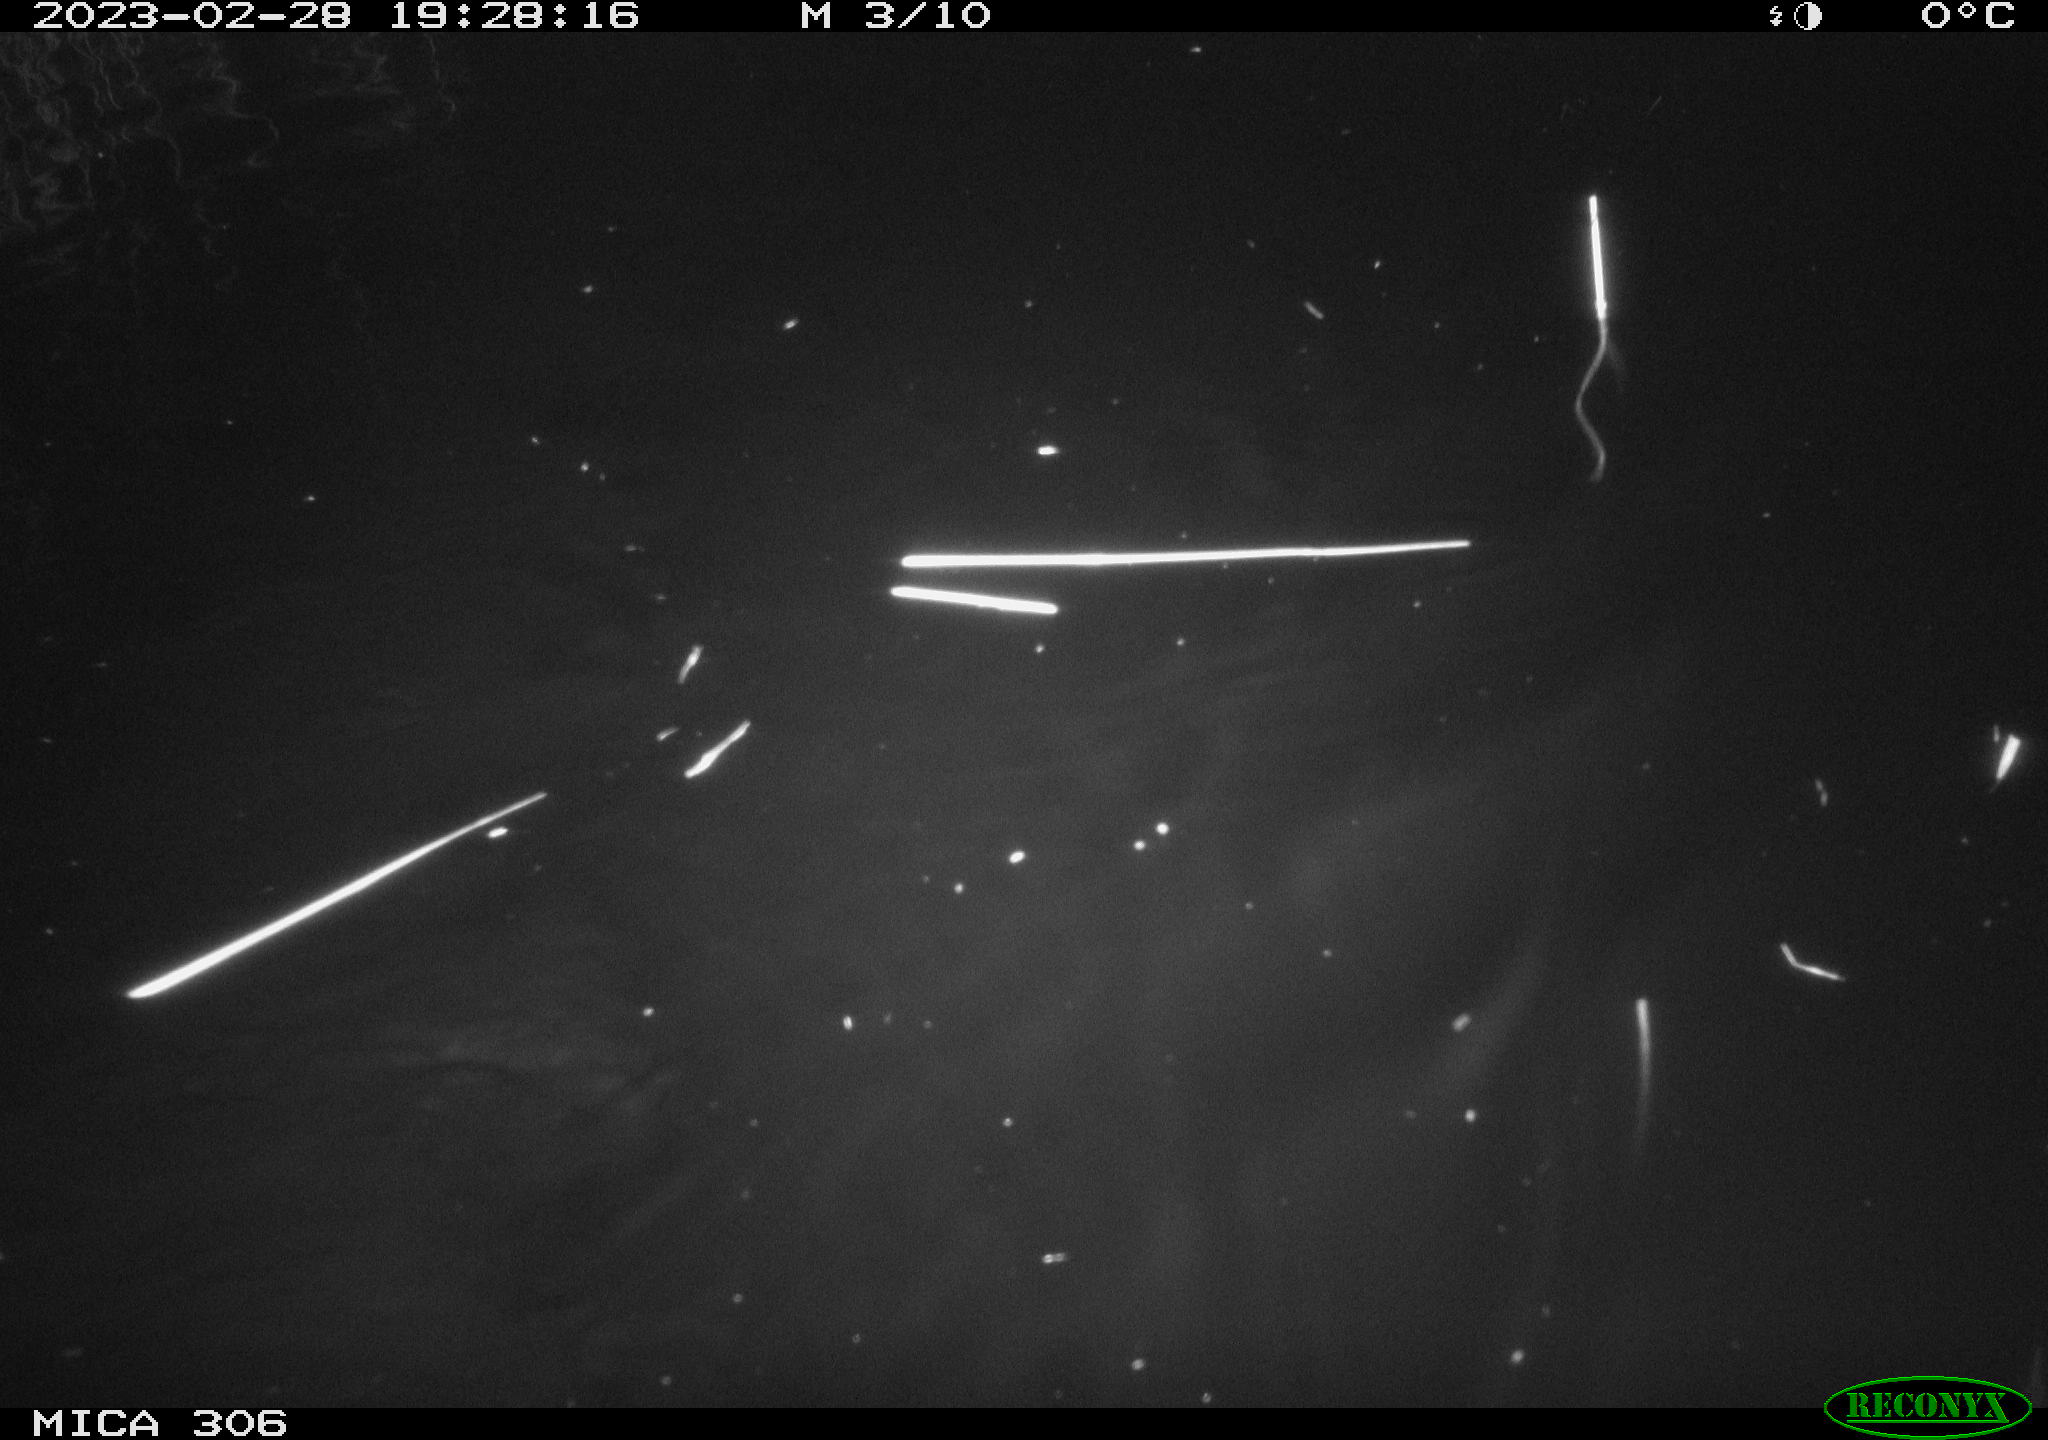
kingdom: Animalia
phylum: Chordata
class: Mammalia
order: Rodentia
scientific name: Rodentia
